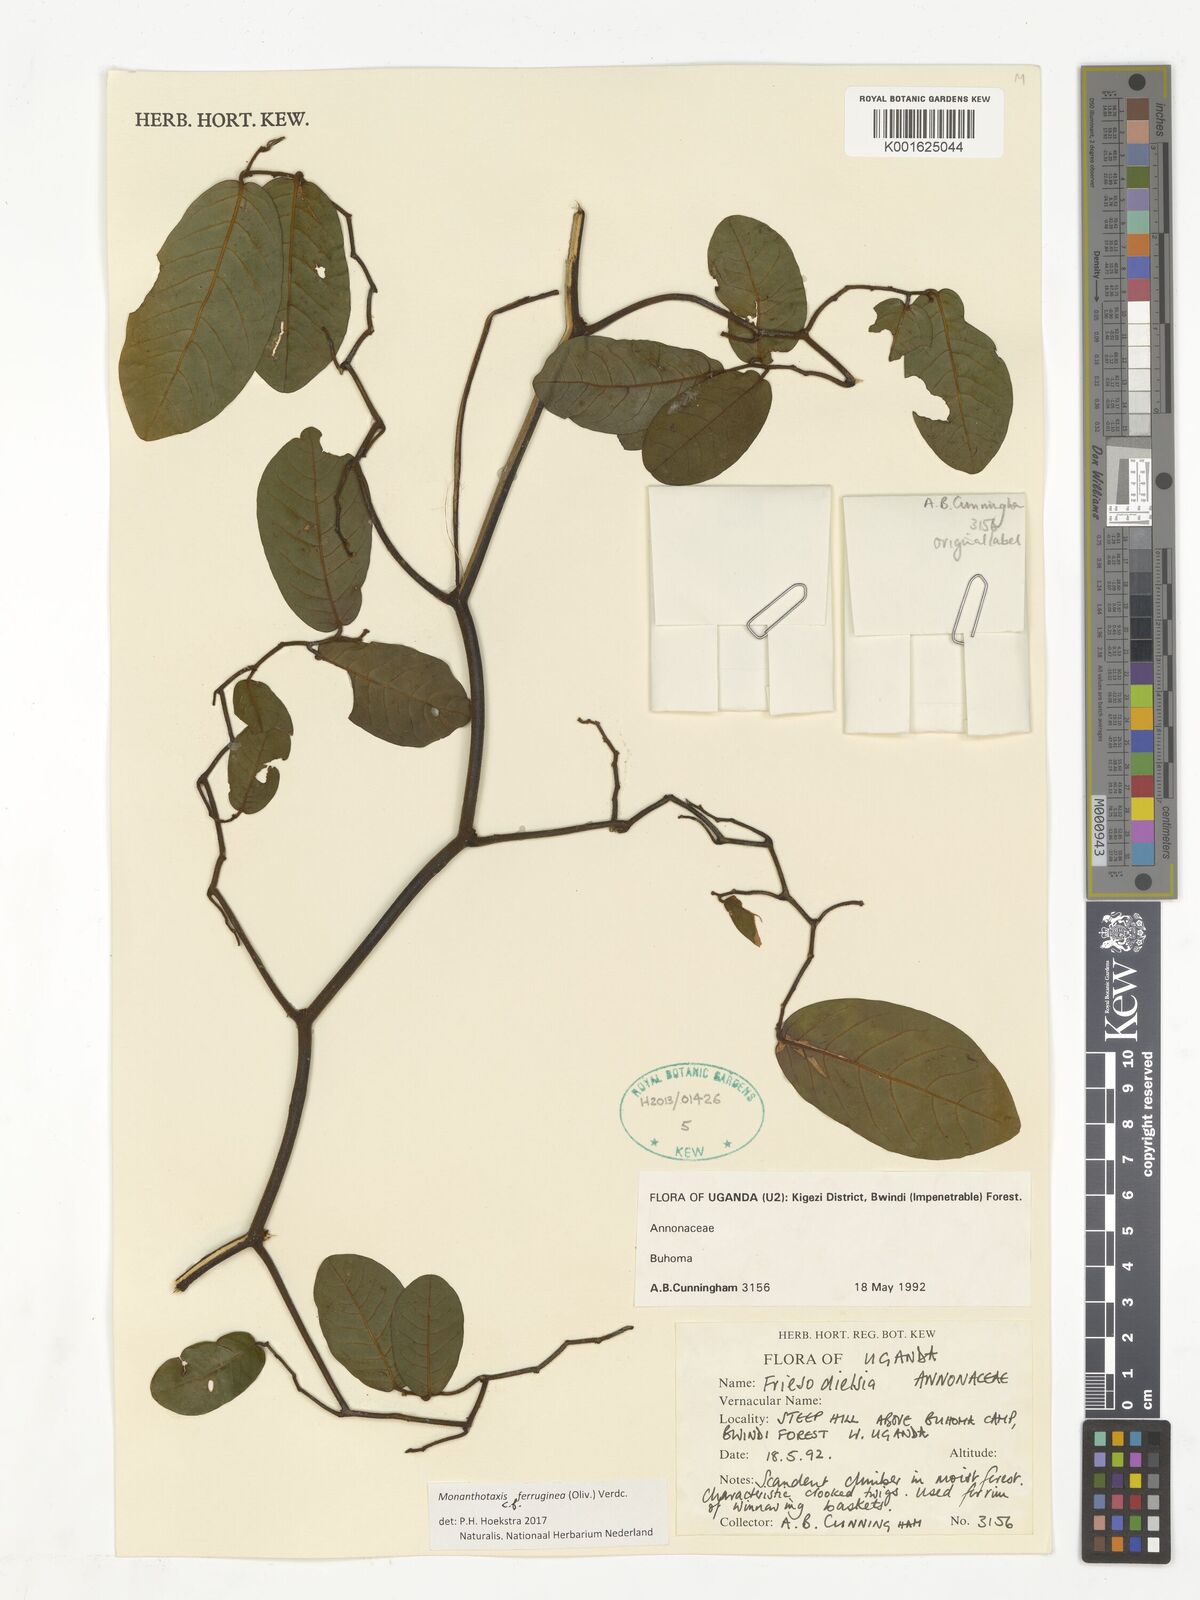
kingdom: Plantae
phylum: Tracheophyta
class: Magnoliopsida
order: Magnoliales
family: Annonaceae
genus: Monanthotaxis
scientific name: Monanthotaxis ferruginea
